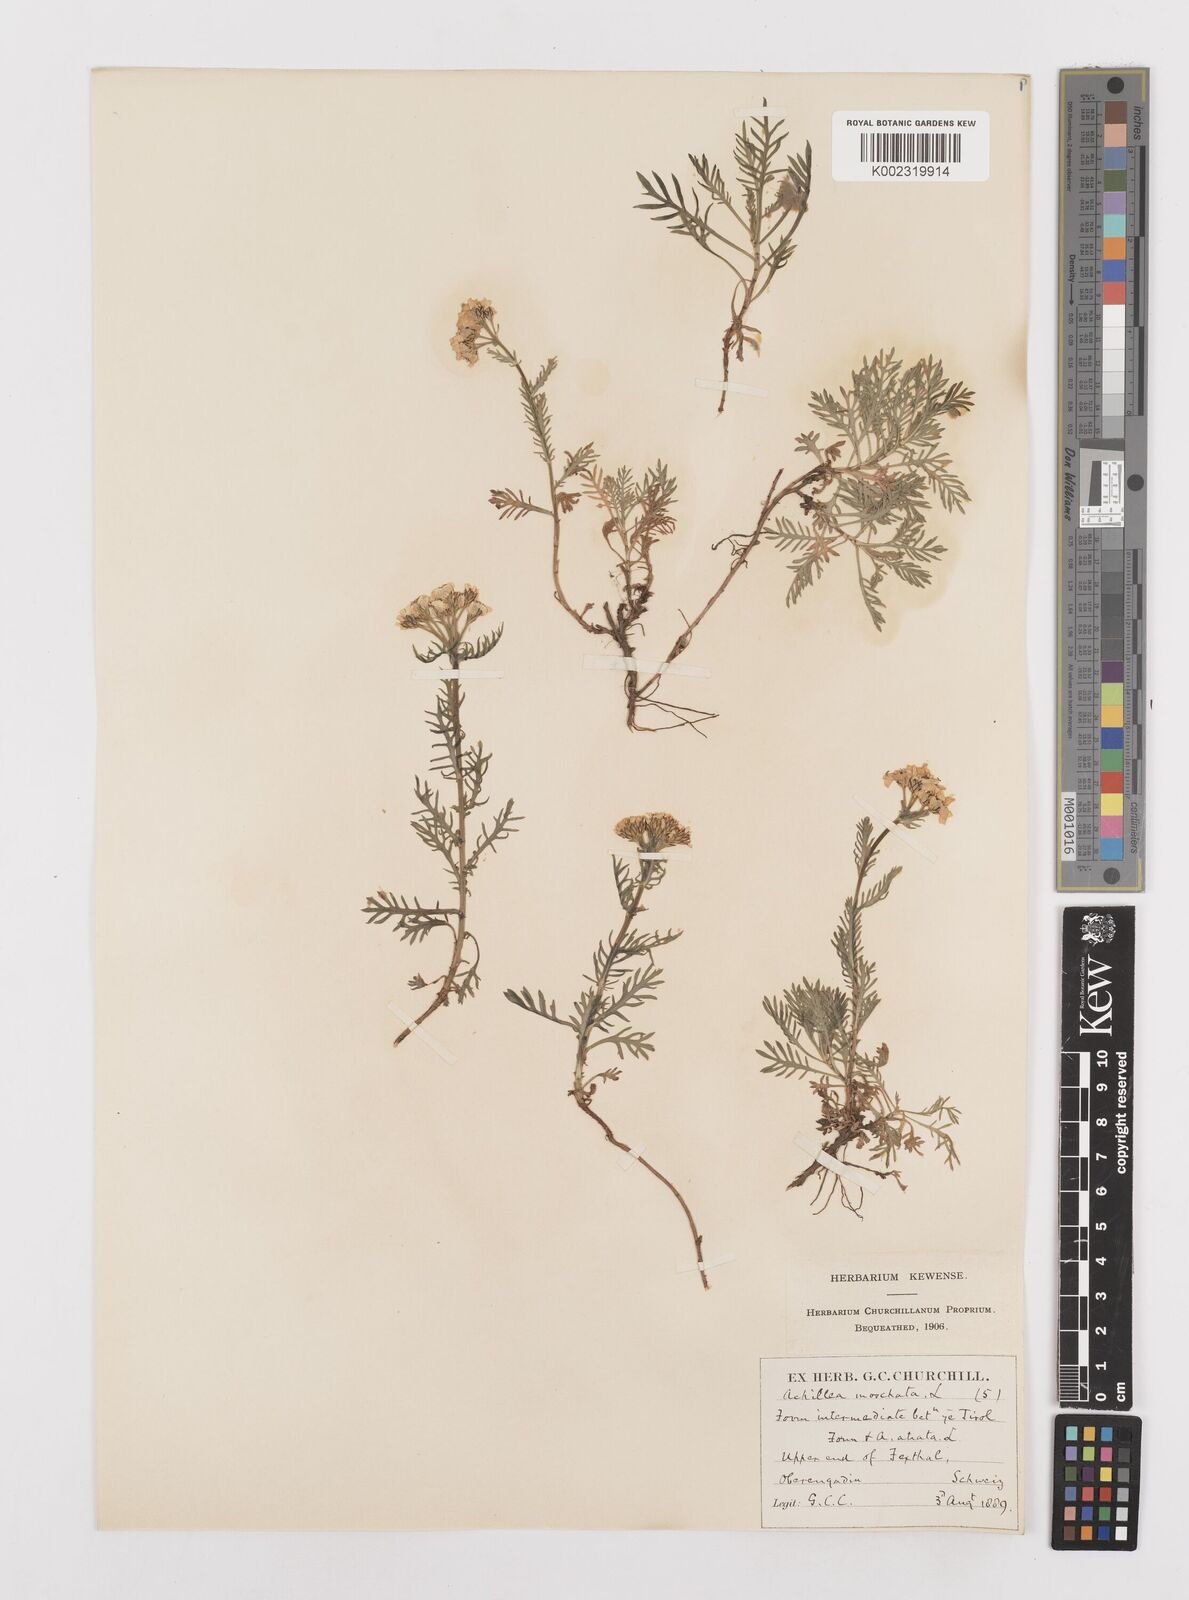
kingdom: Plantae
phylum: Tracheophyta
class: Magnoliopsida
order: Asterales
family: Asteraceae
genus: Achillea
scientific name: Achillea erba-rotta
